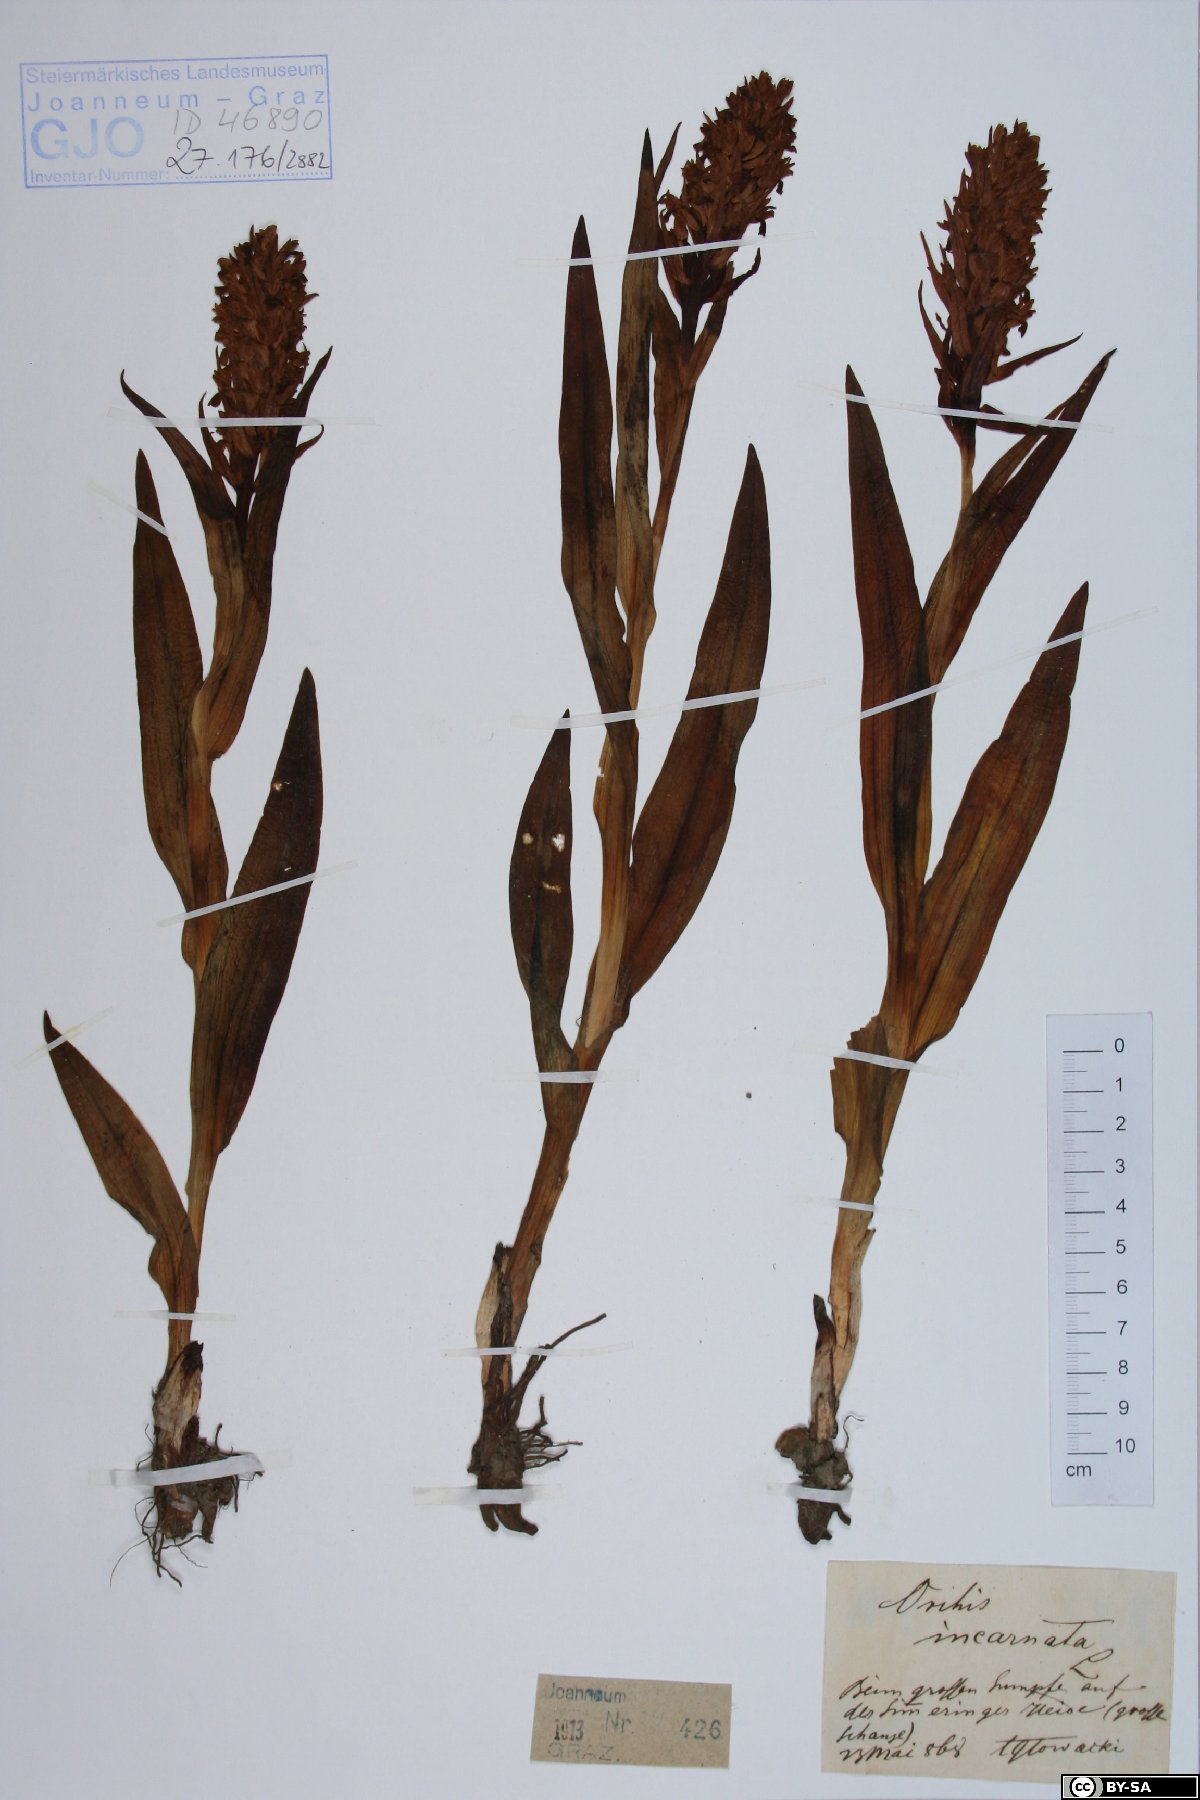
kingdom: Plantae
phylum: Tracheophyta
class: Liliopsida
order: Asparagales
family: Orchidaceae
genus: Dactylorhiza
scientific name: Dactylorhiza incarnata
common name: Early marsh-orchid
